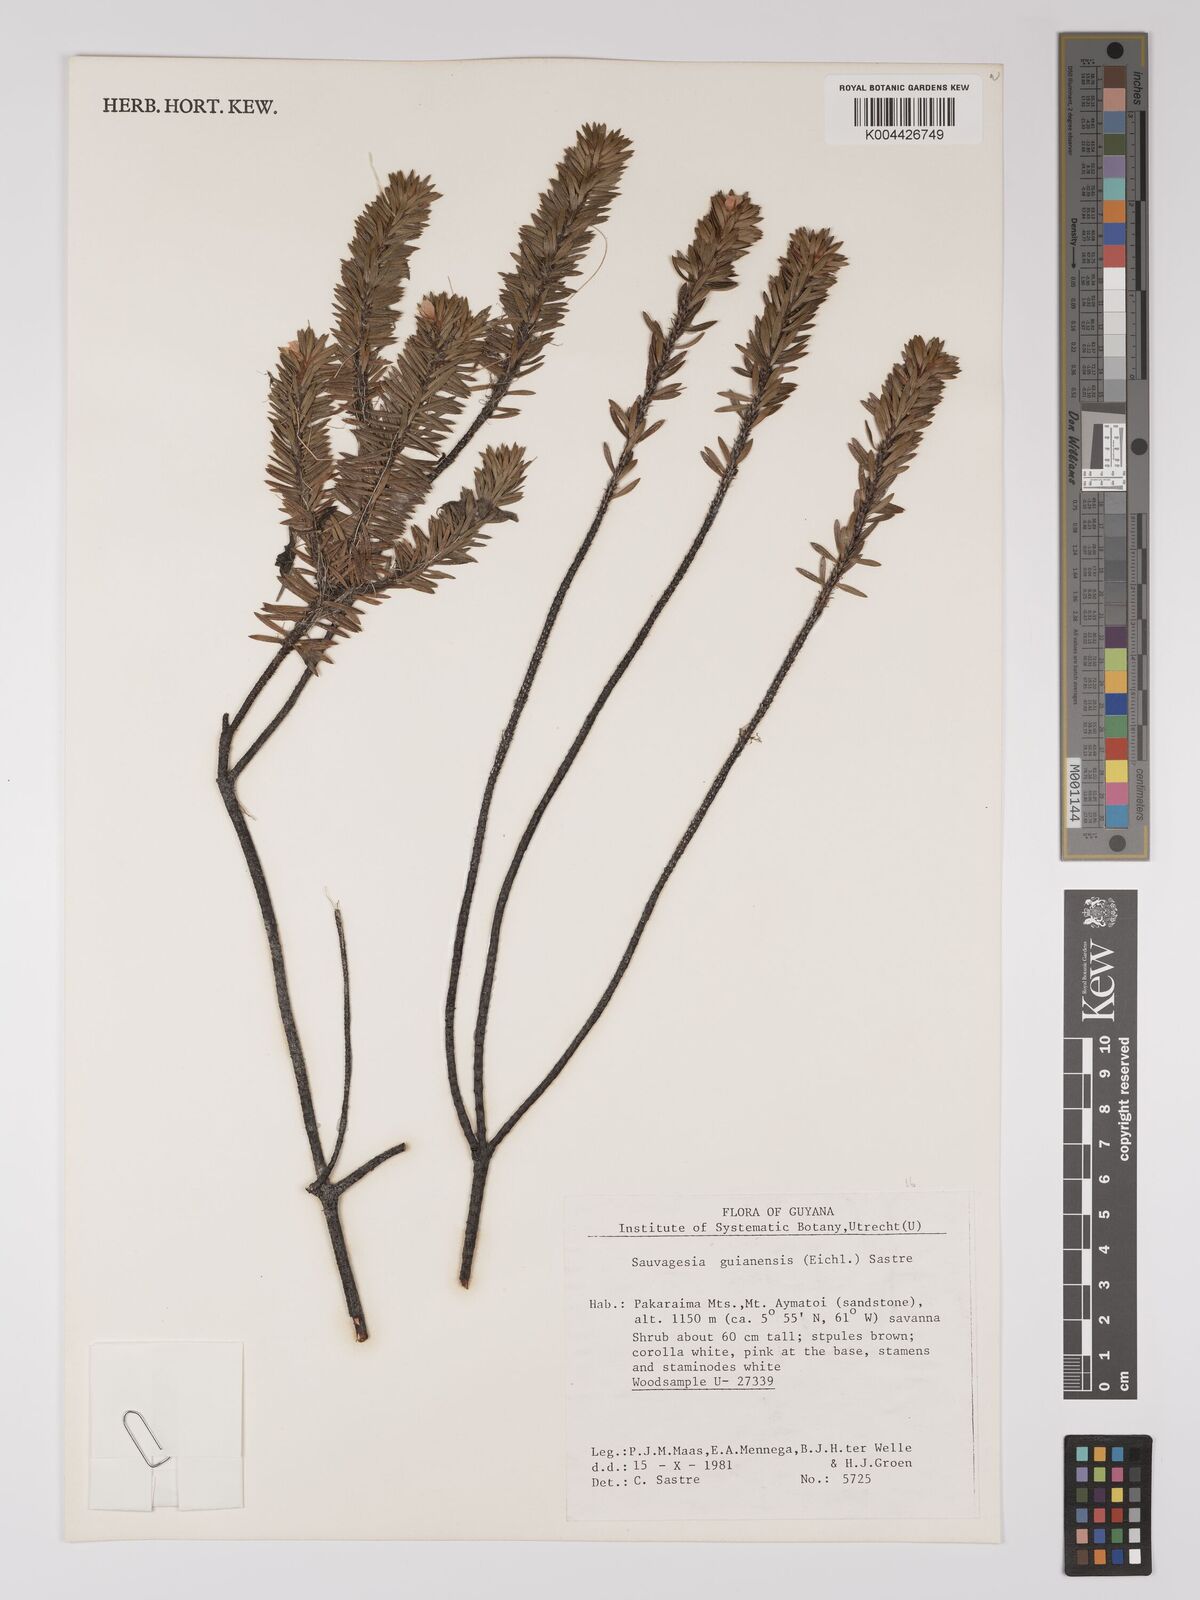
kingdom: Plantae
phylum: Tracheophyta
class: Magnoliopsida
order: Malpighiales
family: Ochnaceae
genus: Sauvagesia
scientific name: Sauvagesia guianensis
